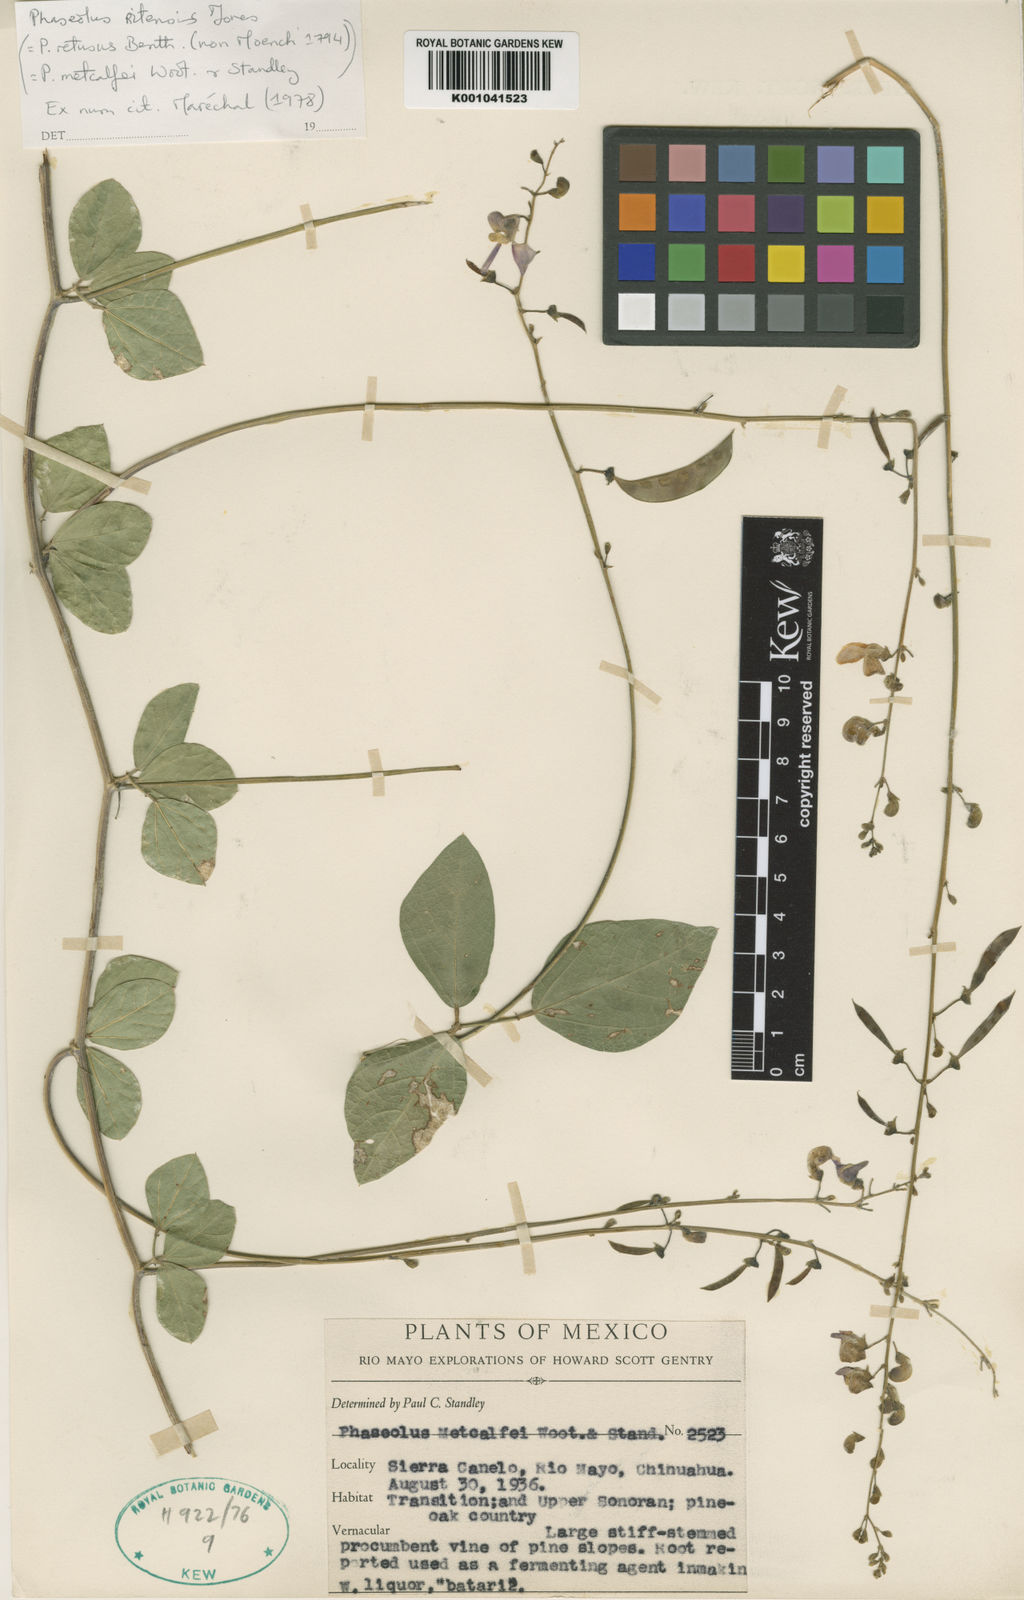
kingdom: Plantae
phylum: Tracheophyta
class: Magnoliopsida
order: Fabales
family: Fabaceae
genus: Phaseolus
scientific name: Phaseolus maculatus
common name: Metcalfe bean
